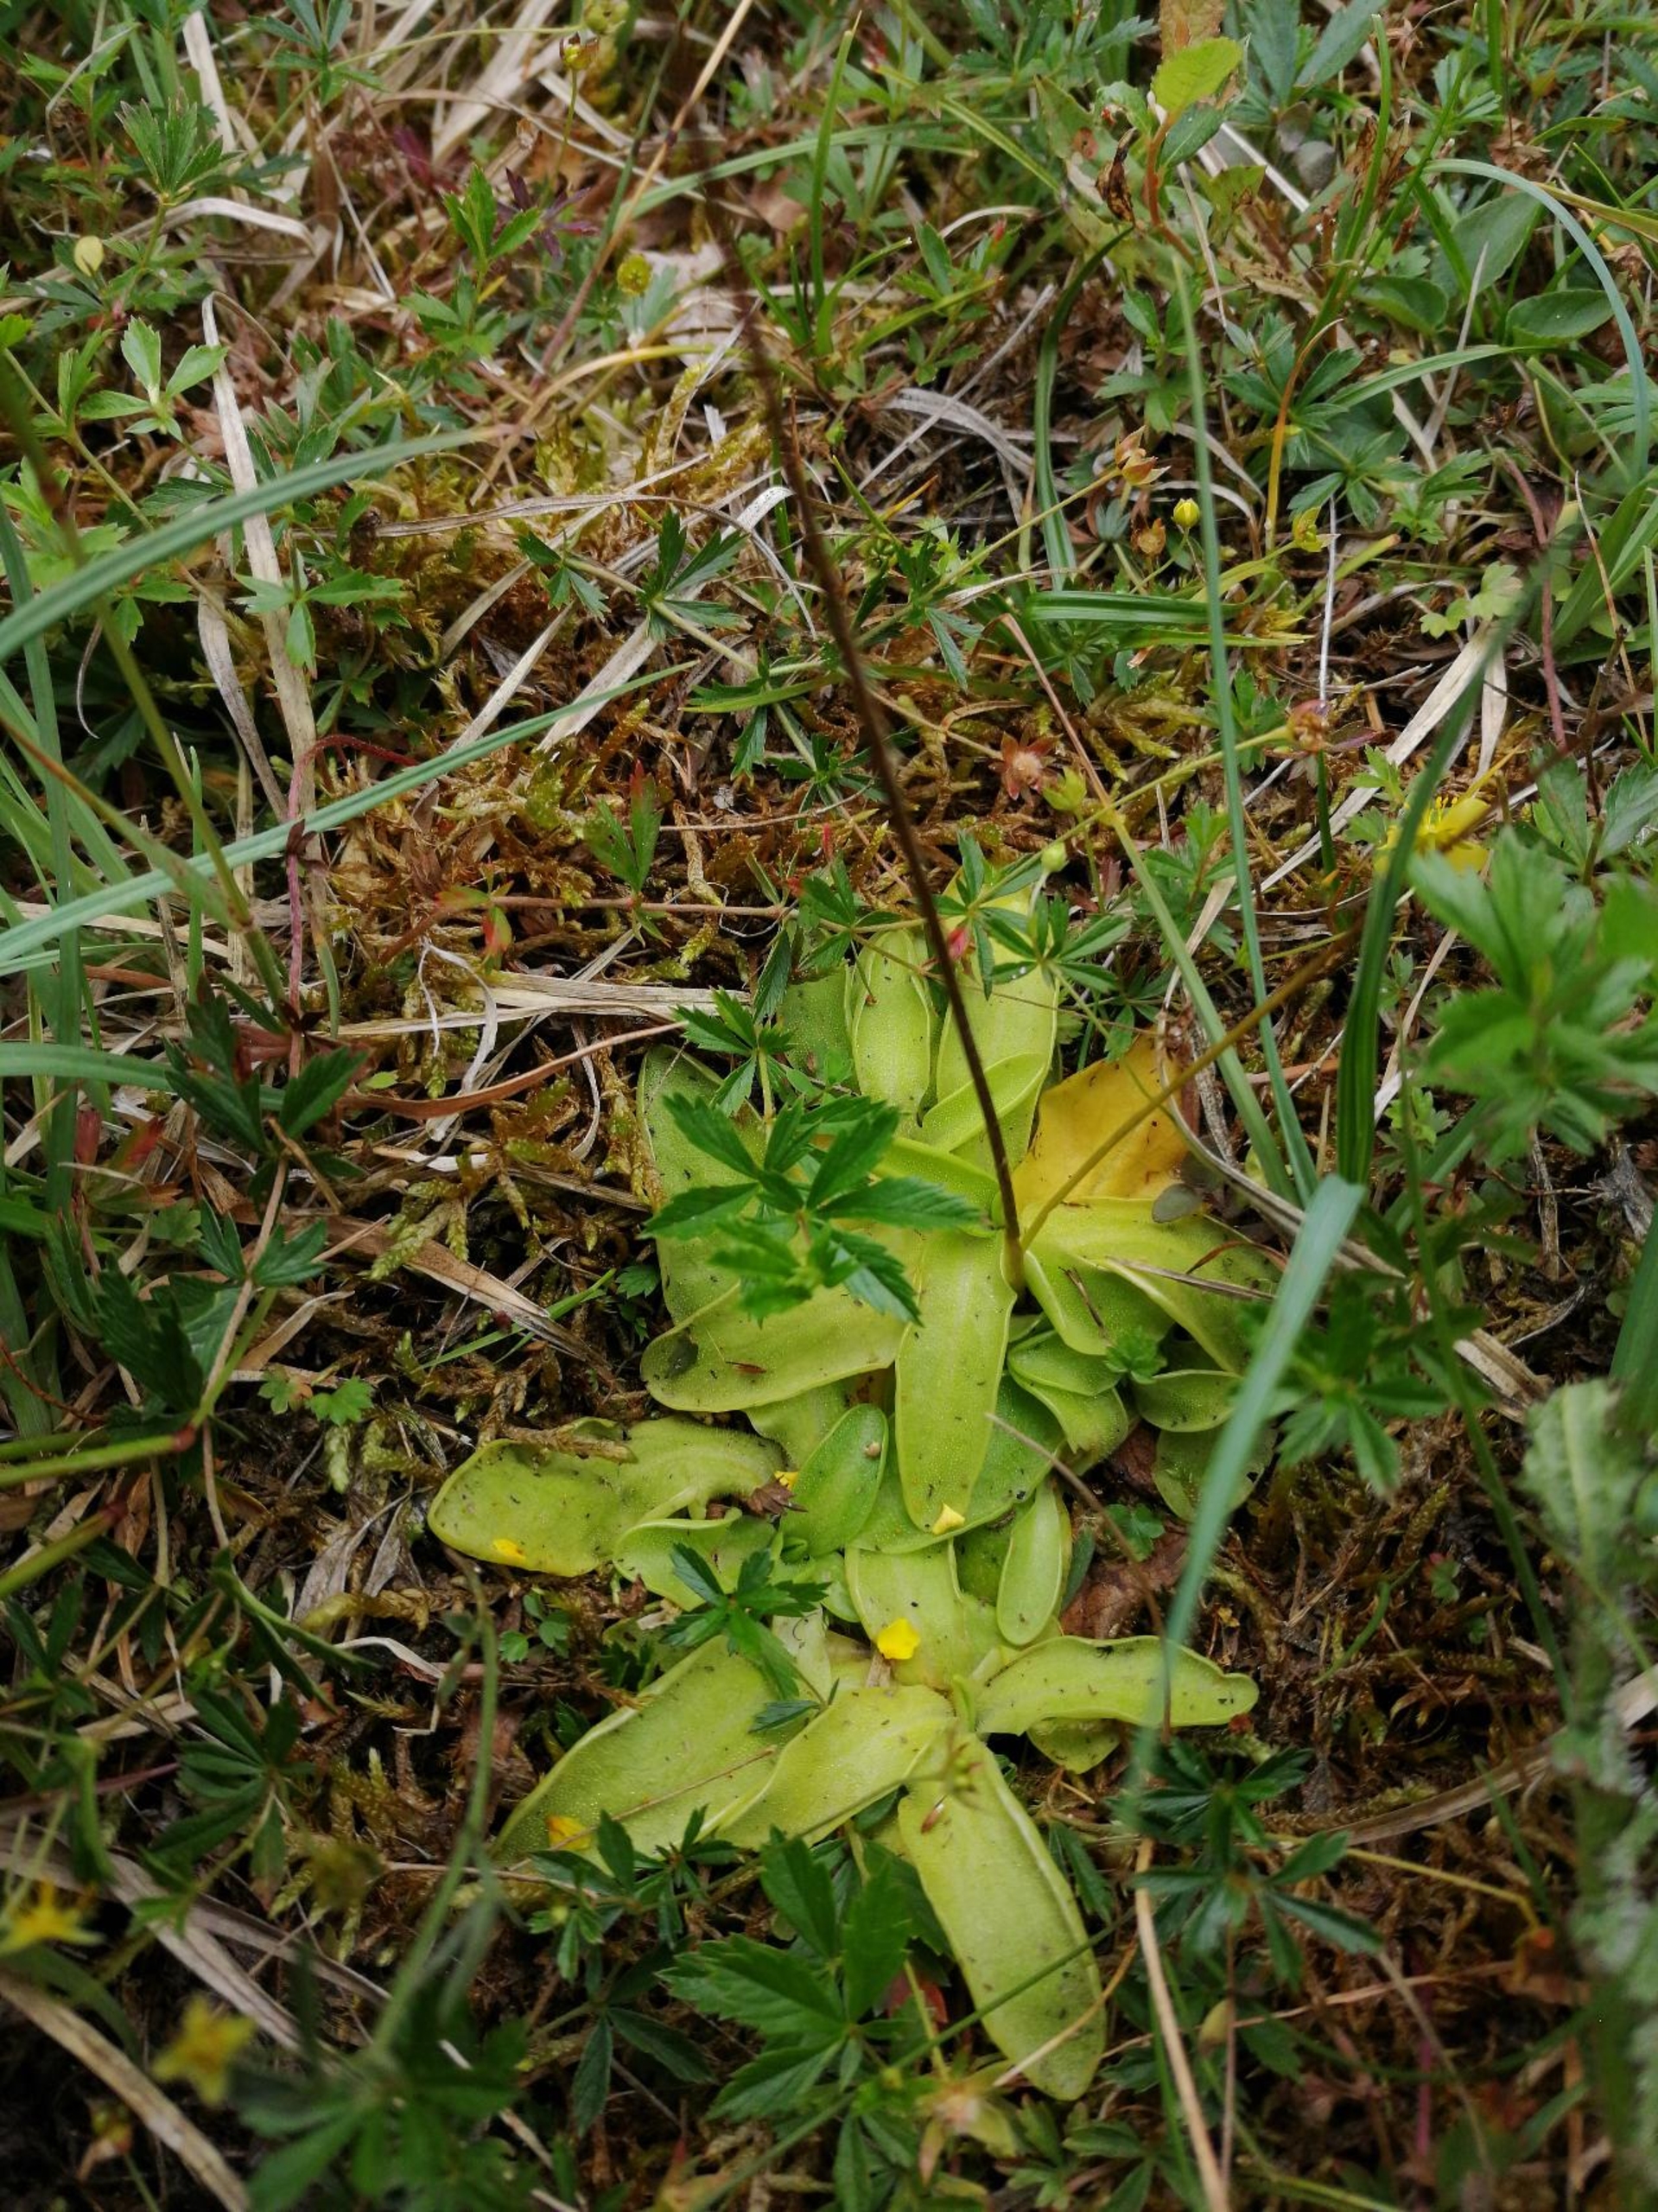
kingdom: Plantae
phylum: Tracheophyta
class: Magnoliopsida
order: Lamiales
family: Lentibulariaceae
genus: Pinguicula
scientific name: Pinguicula vulgaris
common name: Vibefedt
